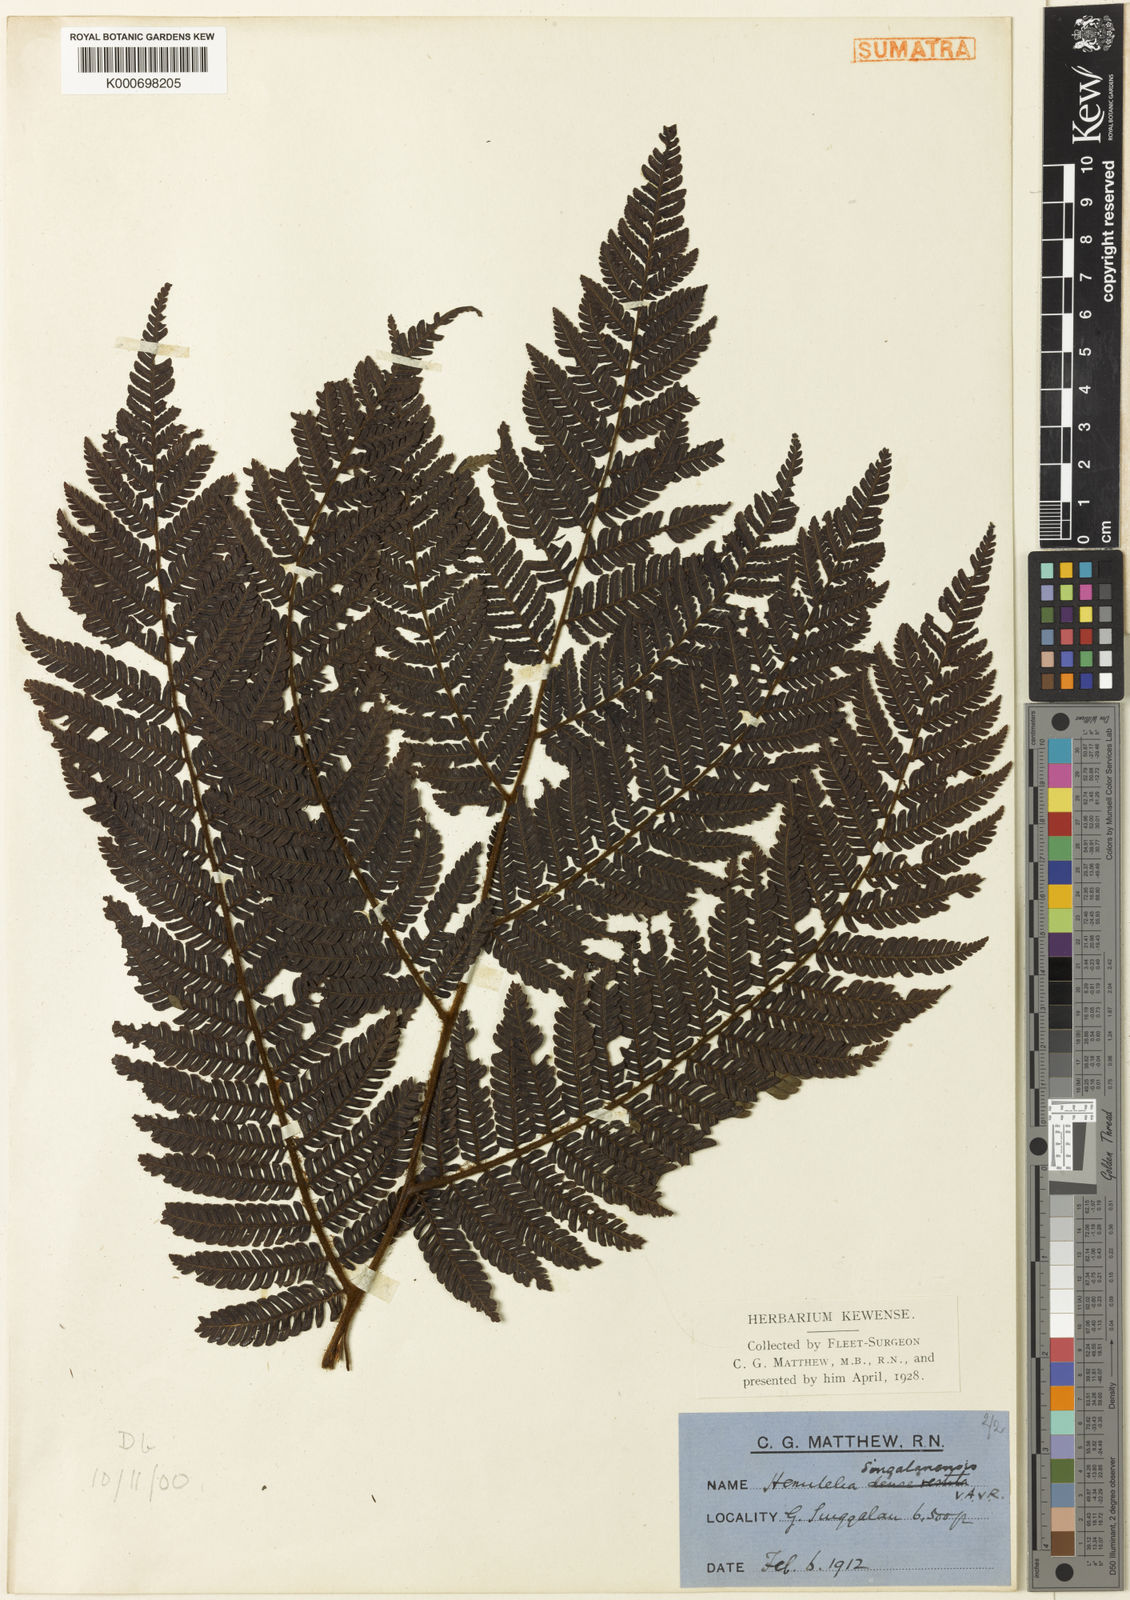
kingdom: Plantae
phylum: Tracheophyta
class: Polypodiopsida
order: Cyatheales
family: Cyatheaceae
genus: Alsophila
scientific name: Alsophila modesta
